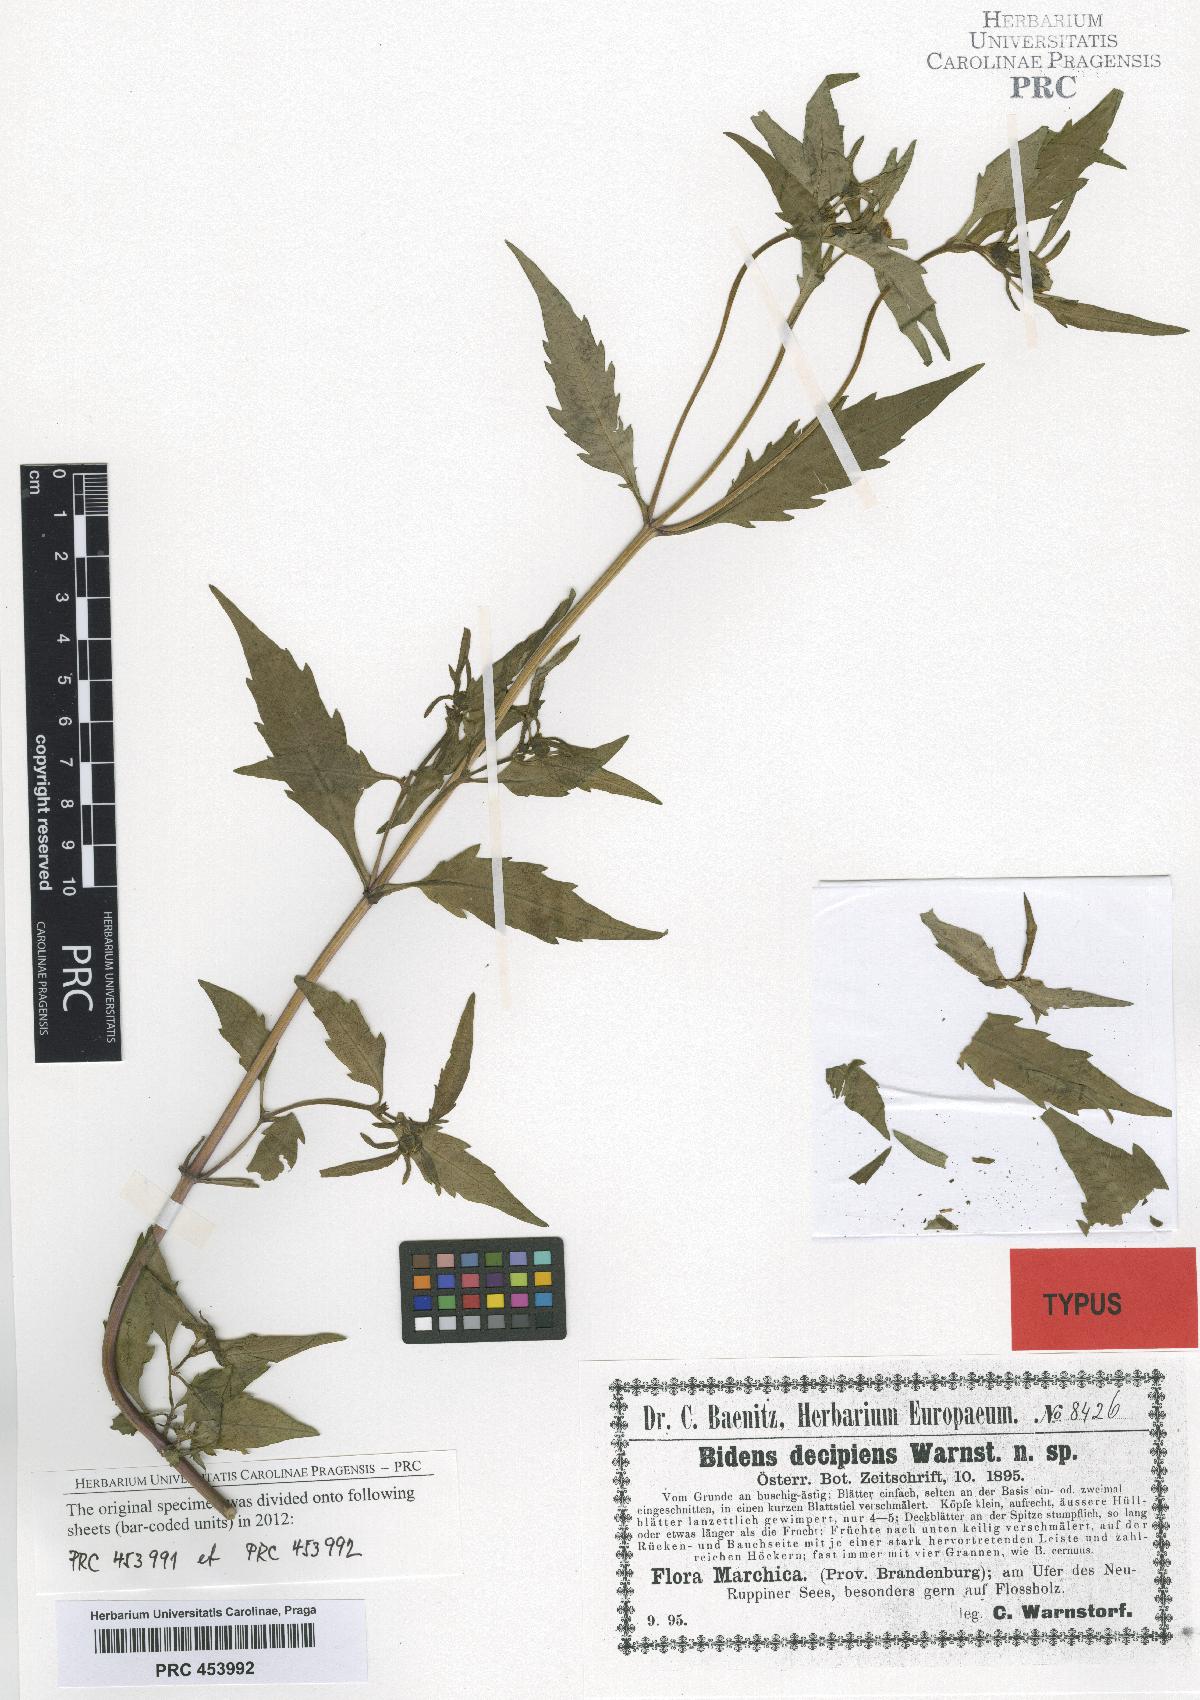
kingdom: Plantae
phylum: Tracheophyta
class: Magnoliopsida
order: Asterales
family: Asteraceae
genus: Bidens
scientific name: Bidens connata
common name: London bur-marigold
